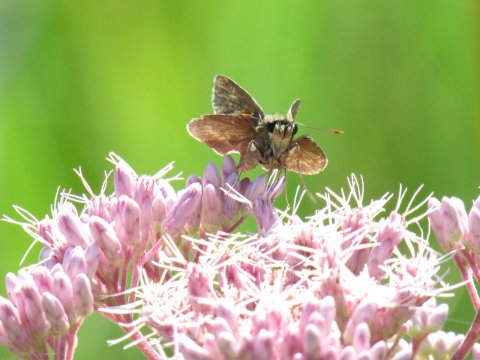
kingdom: Animalia
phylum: Arthropoda
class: Insecta
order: Lepidoptera
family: Hesperiidae
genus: Polites
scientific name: Polites egeremet
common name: Northern Broken-Dash
